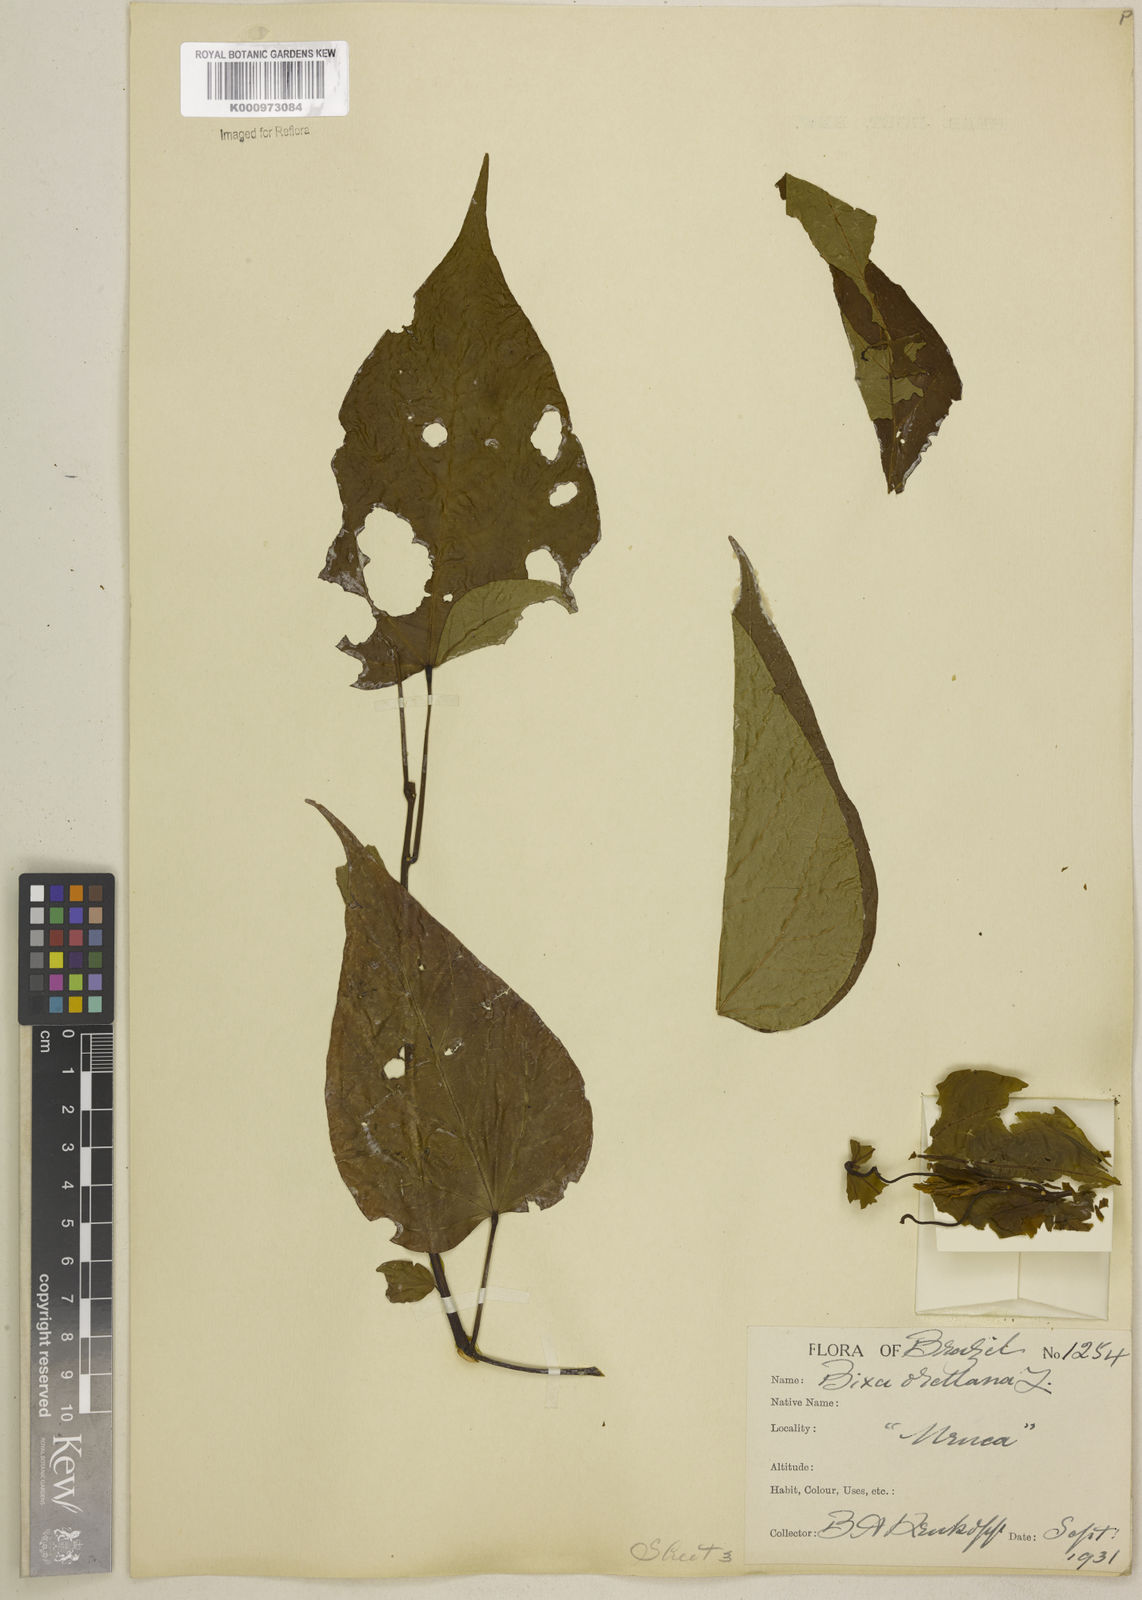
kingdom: Plantae
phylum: Tracheophyta
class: Magnoliopsida
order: Malvales
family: Bixaceae
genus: Bixa
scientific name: Bixa excelsa
